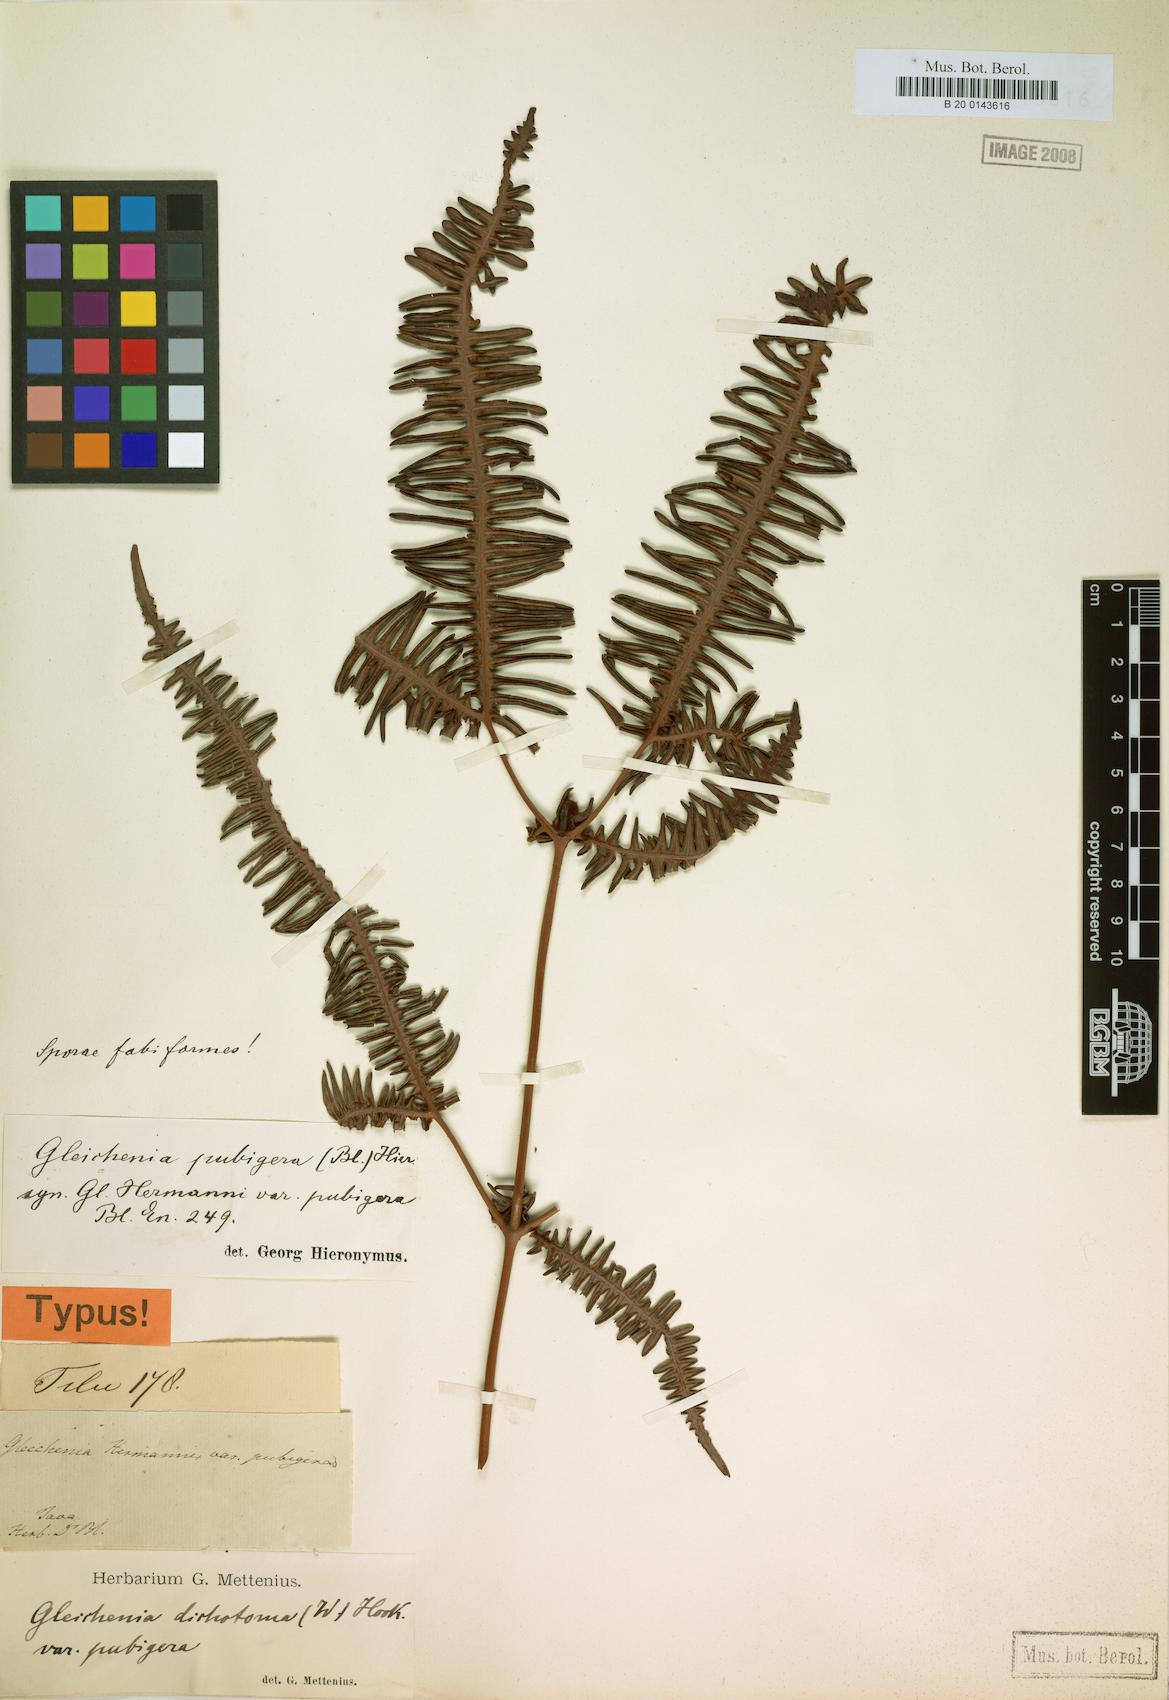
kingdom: Plantae
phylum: Tracheophyta
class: Polypodiopsida
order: Gleicheniales
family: Gleicheniaceae
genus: Dicranopteris
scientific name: Dicranopteris pubigera
